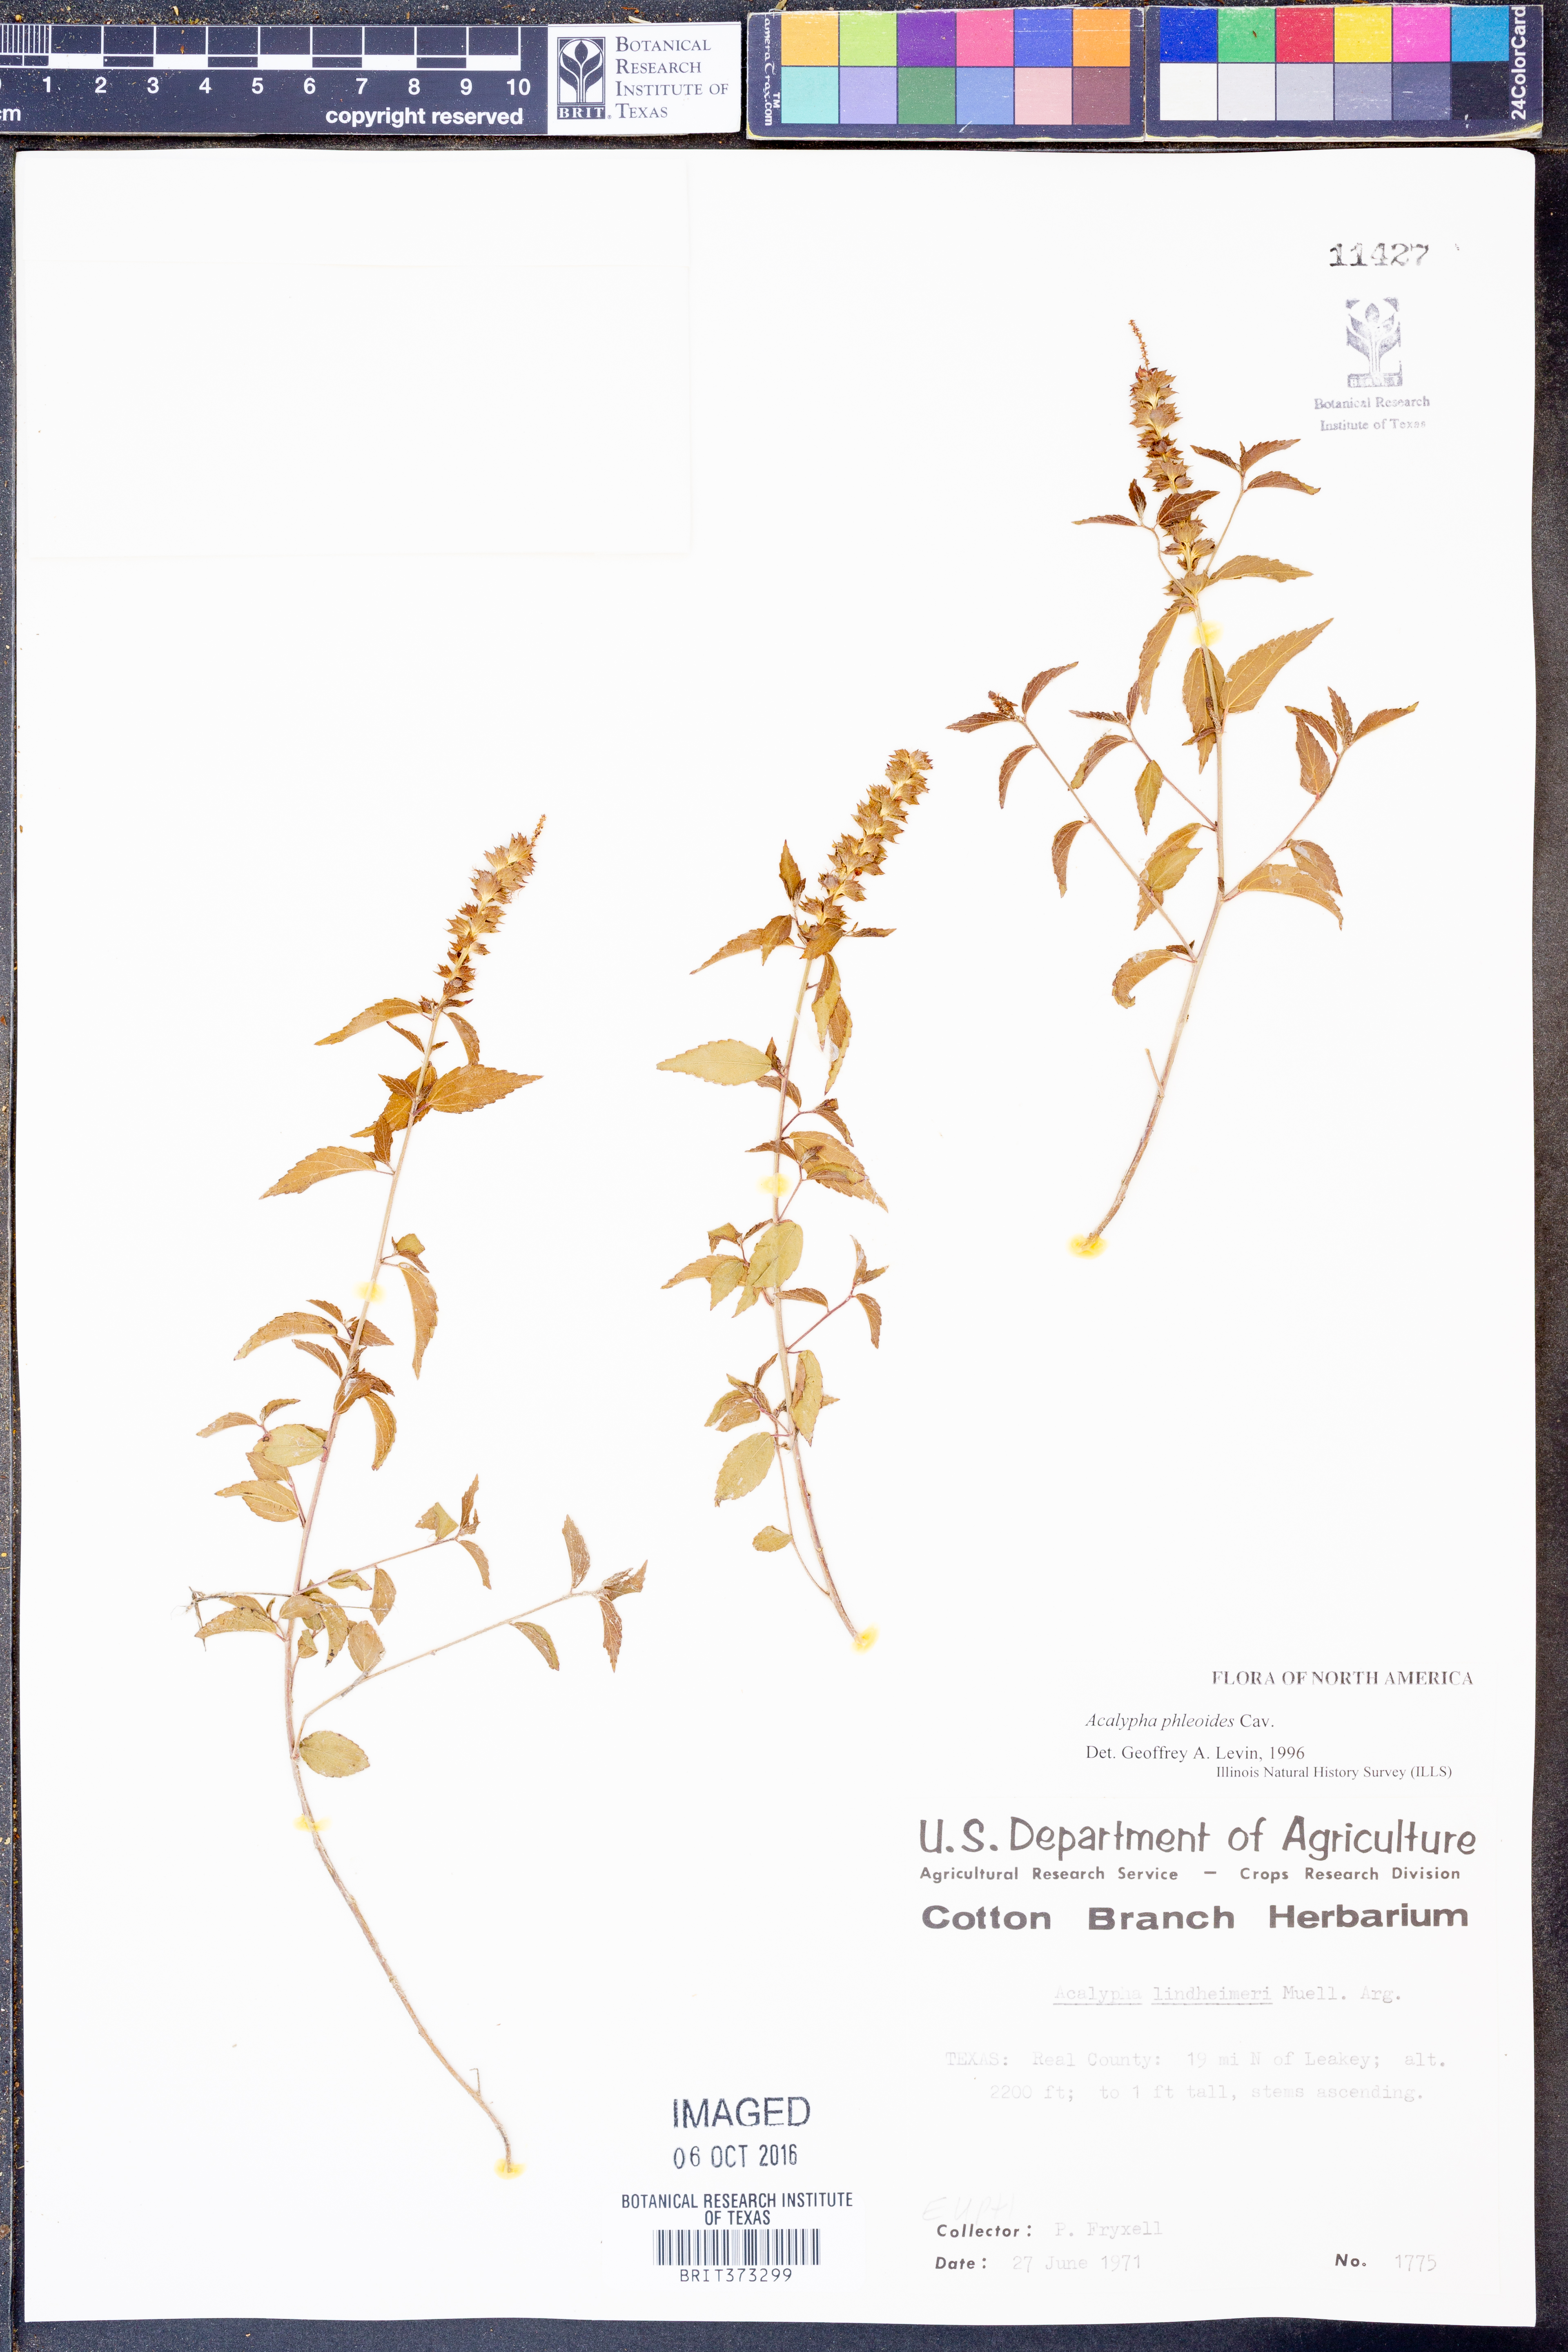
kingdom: Plantae
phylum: Tracheophyta
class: Magnoliopsida
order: Malpighiales
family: Euphorbiaceae
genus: Acalypha
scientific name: Acalypha phleoides
